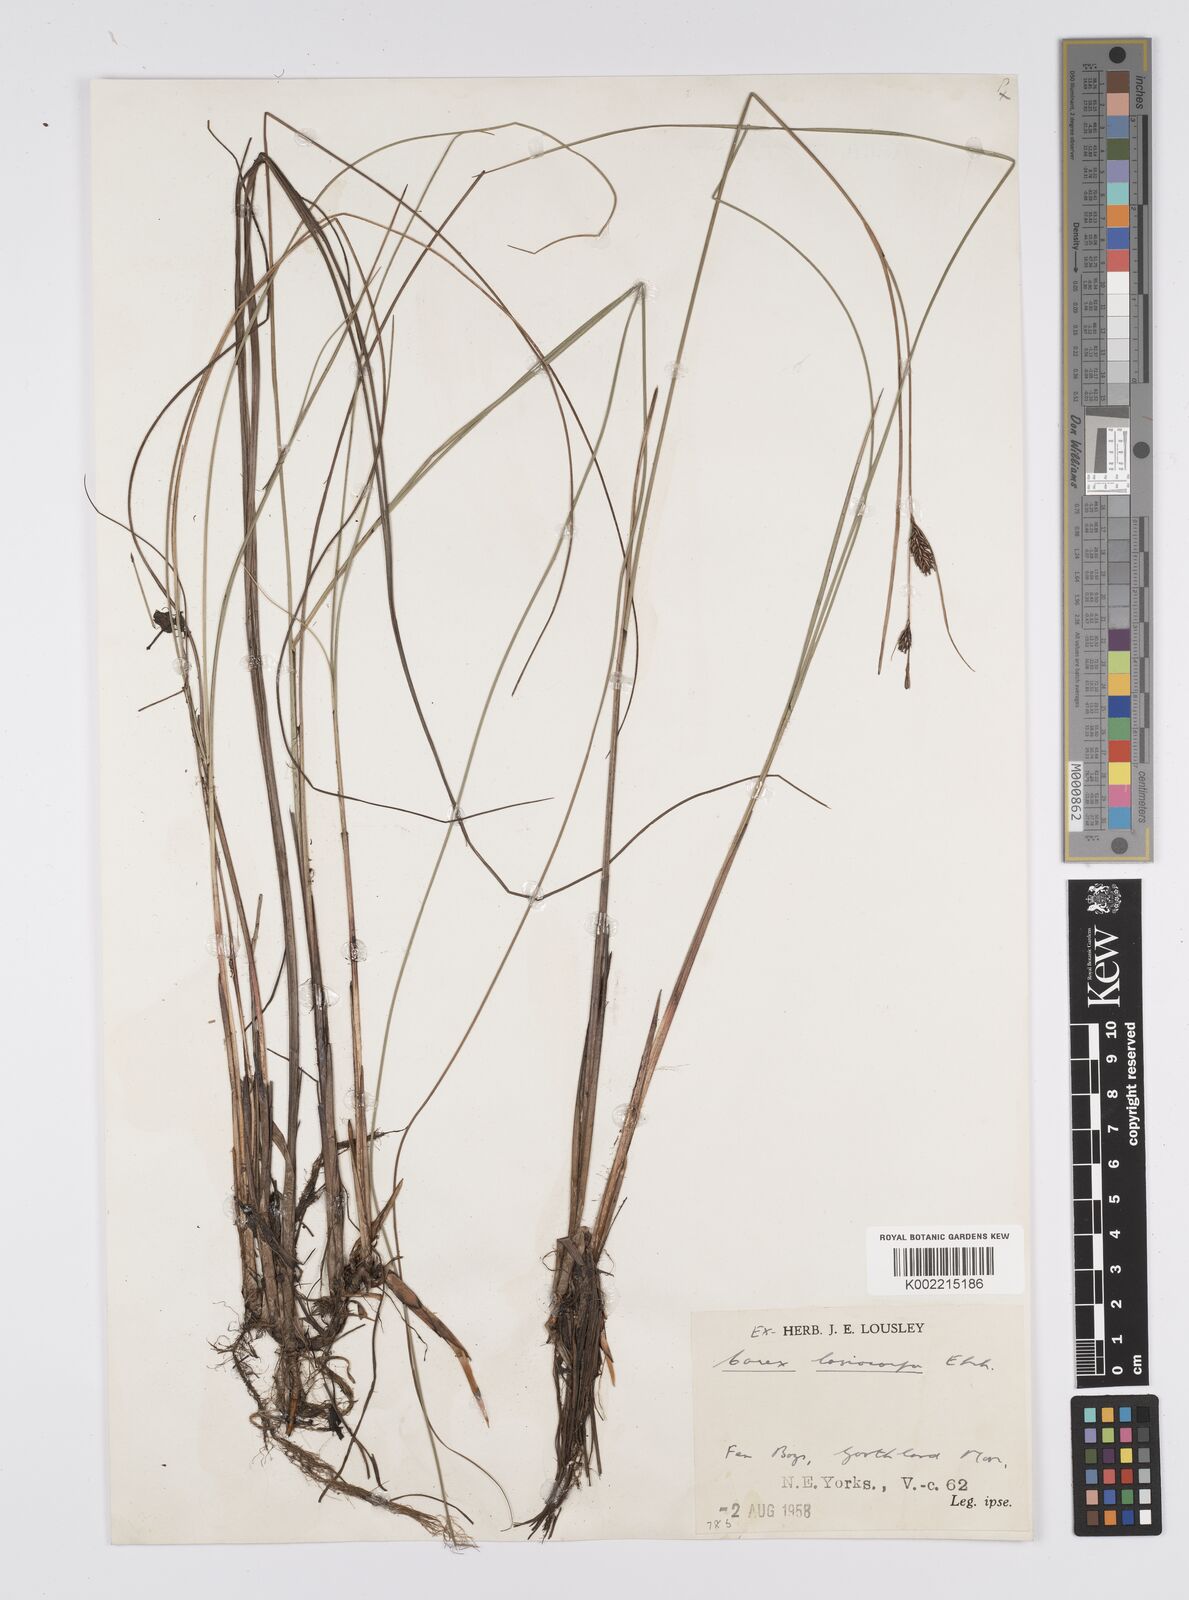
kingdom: Plantae
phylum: Tracheophyta
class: Liliopsida
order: Poales
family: Cyperaceae
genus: Carex
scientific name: Carex lasiocarpa
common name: Slender sedge
